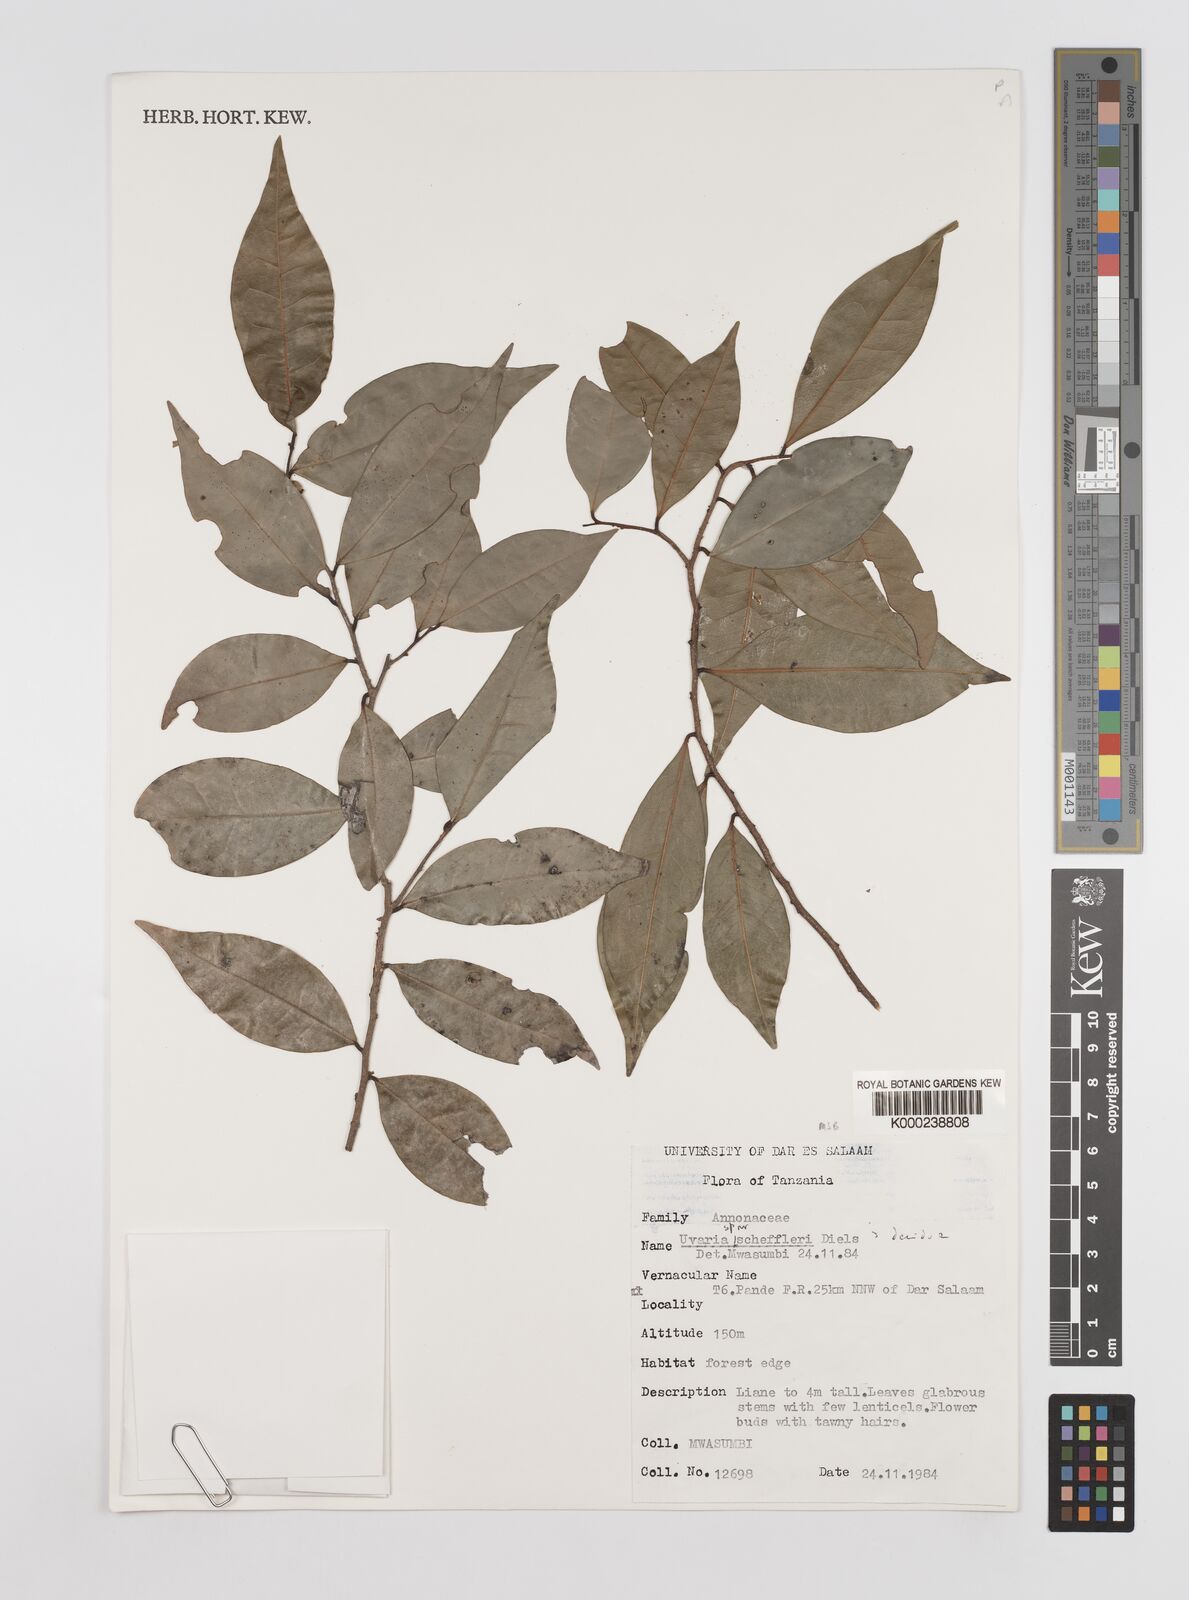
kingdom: Plantae
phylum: Tracheophyta
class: Magnoliopsida
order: Magnoliales
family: Annonaceae
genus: Uvaria
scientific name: Uvaria scheffleri
